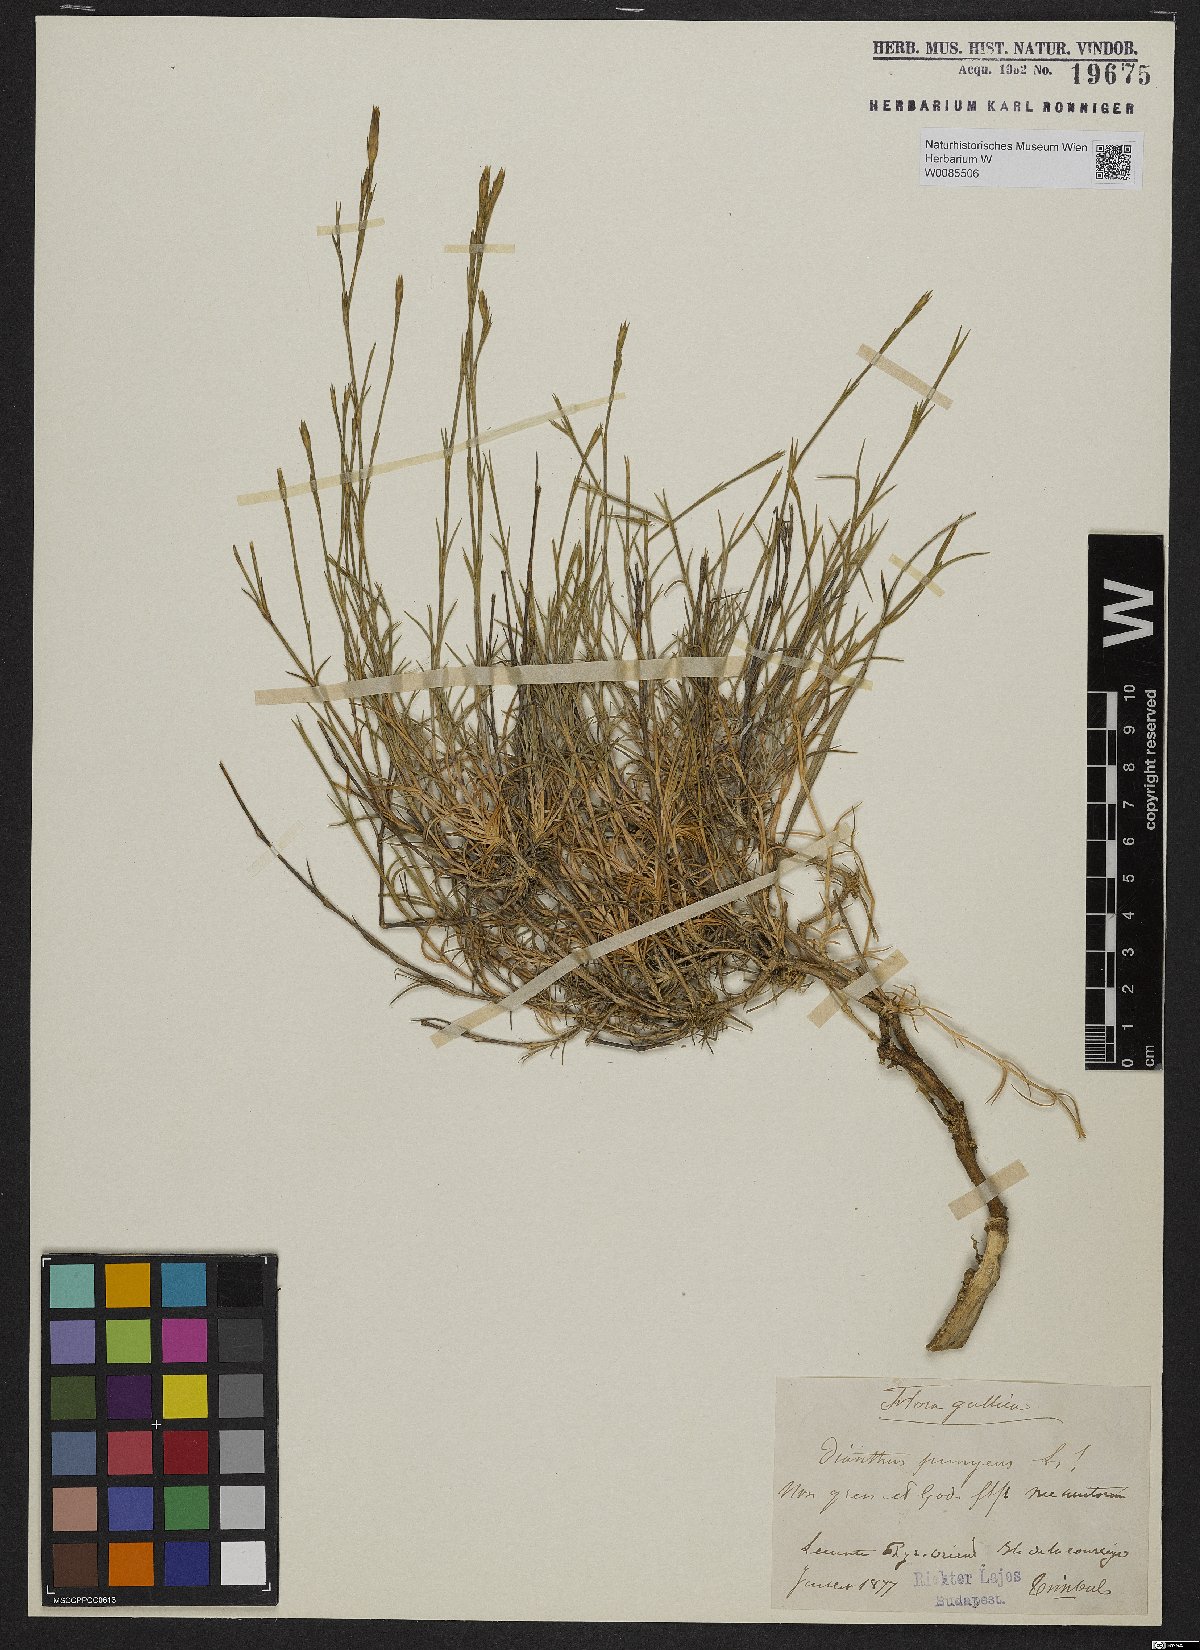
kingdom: Plantae
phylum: Tracheophyta
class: Magnoliopsida
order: Caryophyllales
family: Caryophyllaceae
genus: Dianthus
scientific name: Dianthus pungens
